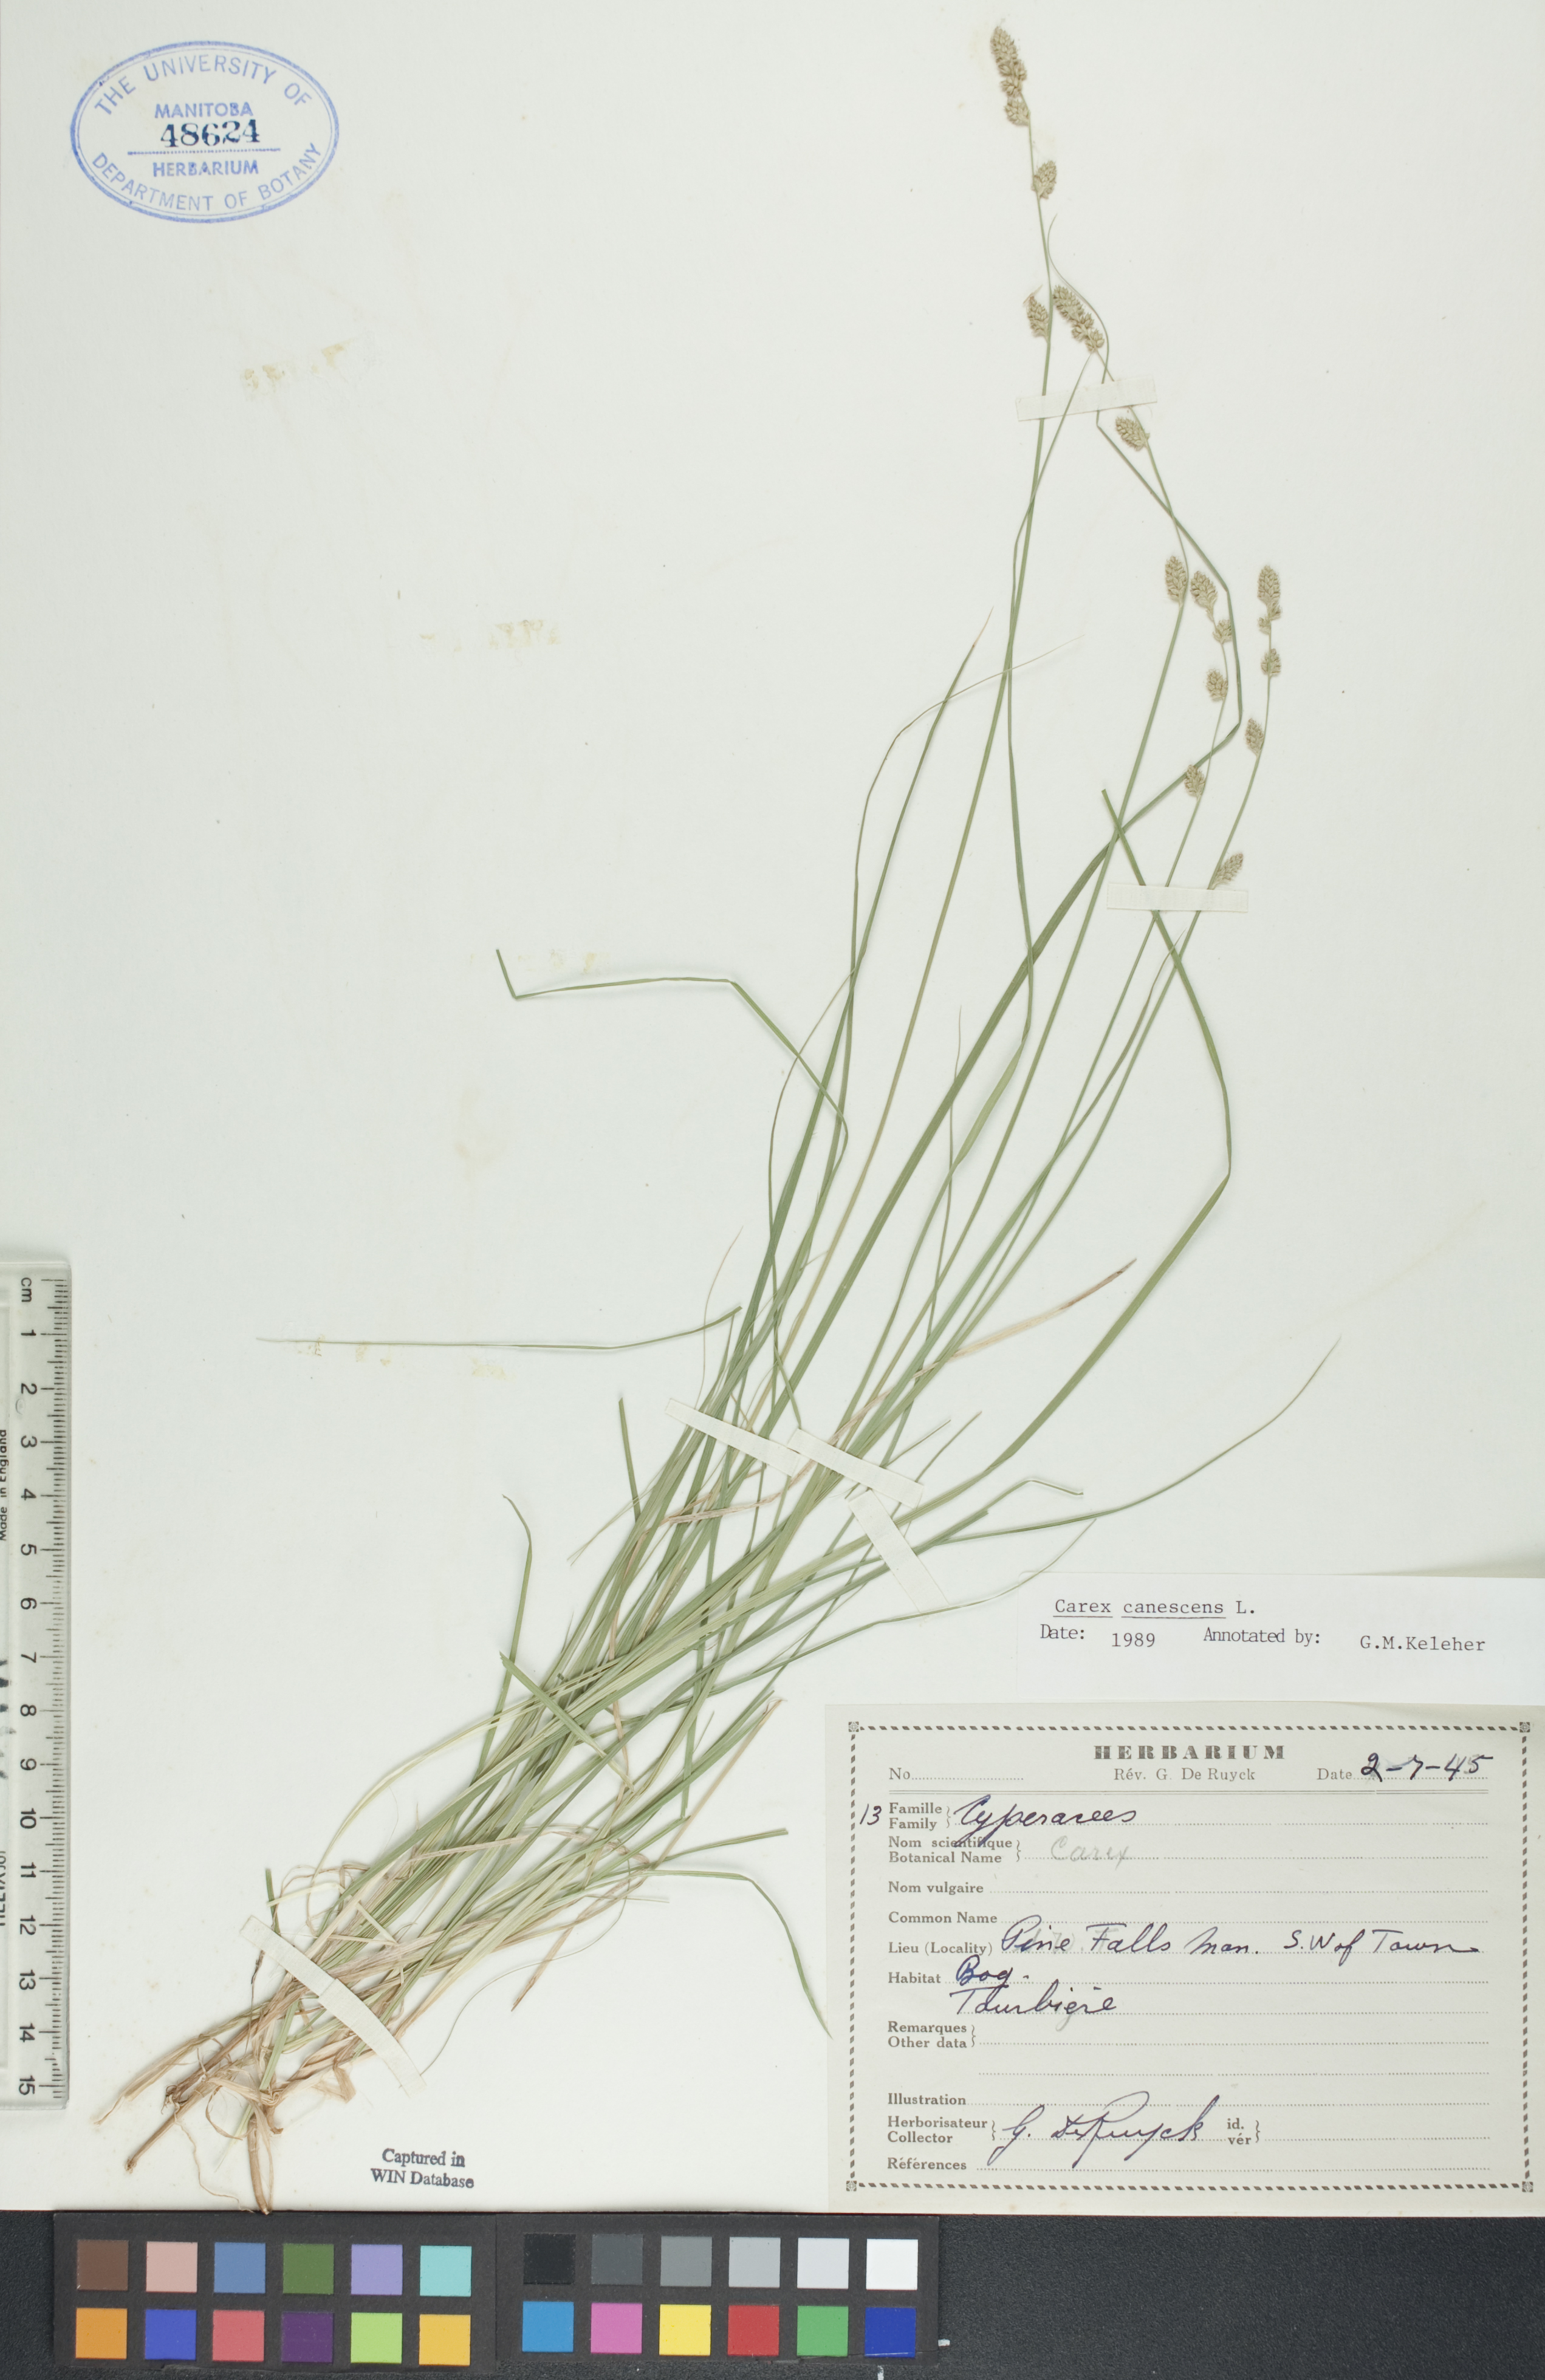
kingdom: Plantae
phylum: Tracheophyta
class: Liliopsida
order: Poales
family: Cyperaceae
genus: Carex
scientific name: Carex canescens
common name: White sedge
